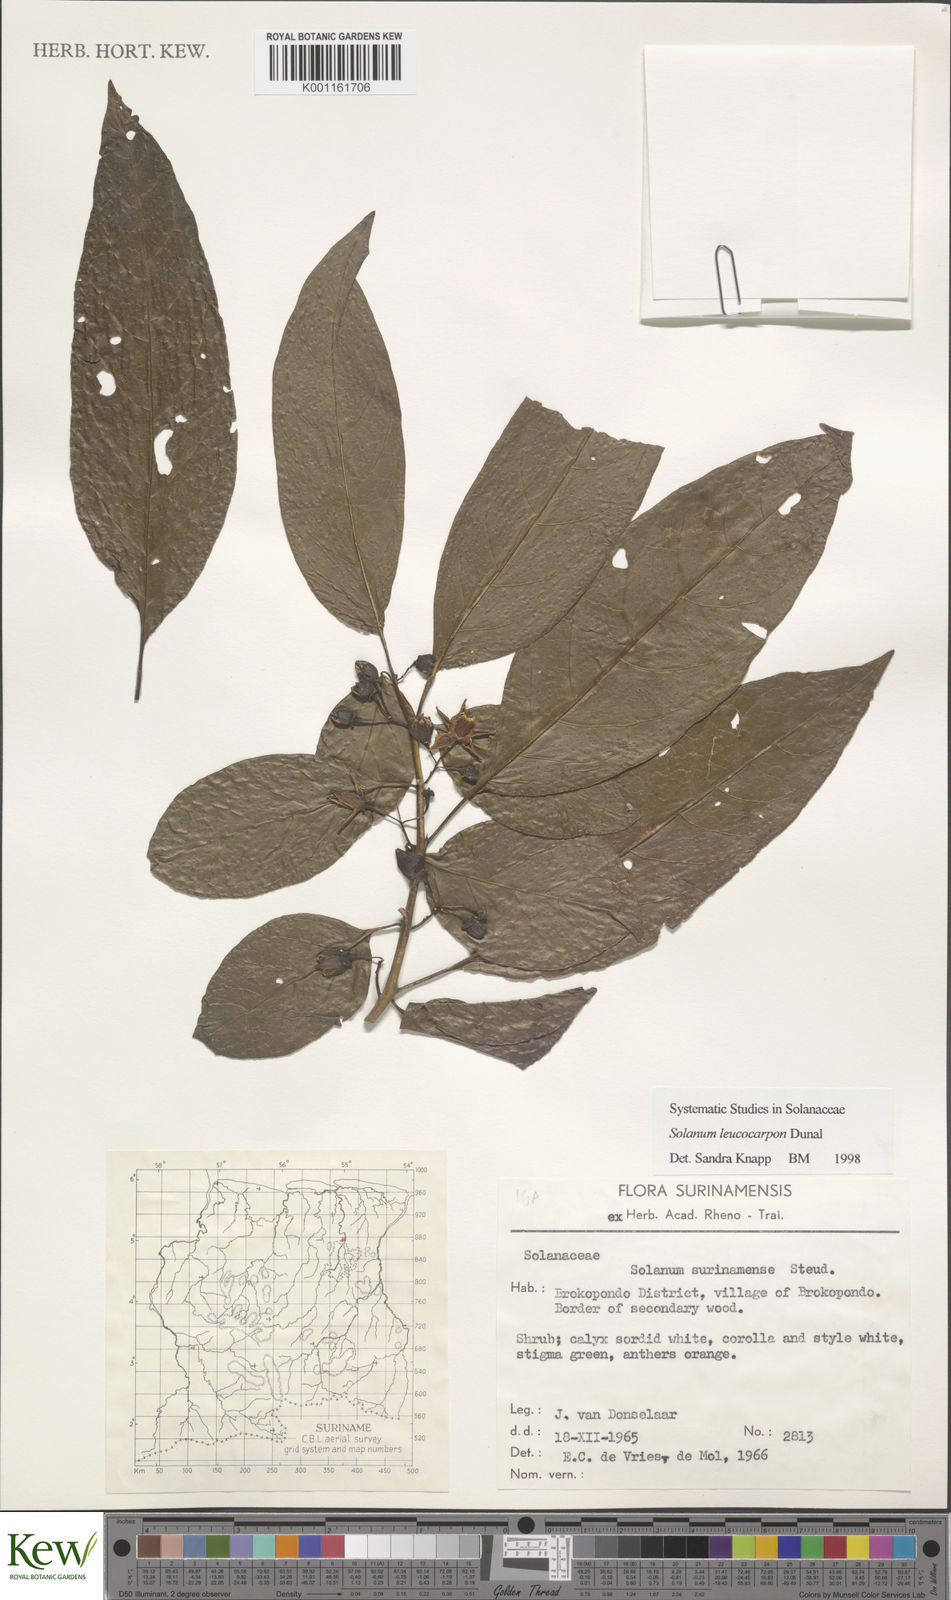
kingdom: Plantae
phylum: Tracheophyta
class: Magnoliopsida
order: Solanales
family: Solanaceae
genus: Solanum
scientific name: Solanum leucocarpon
